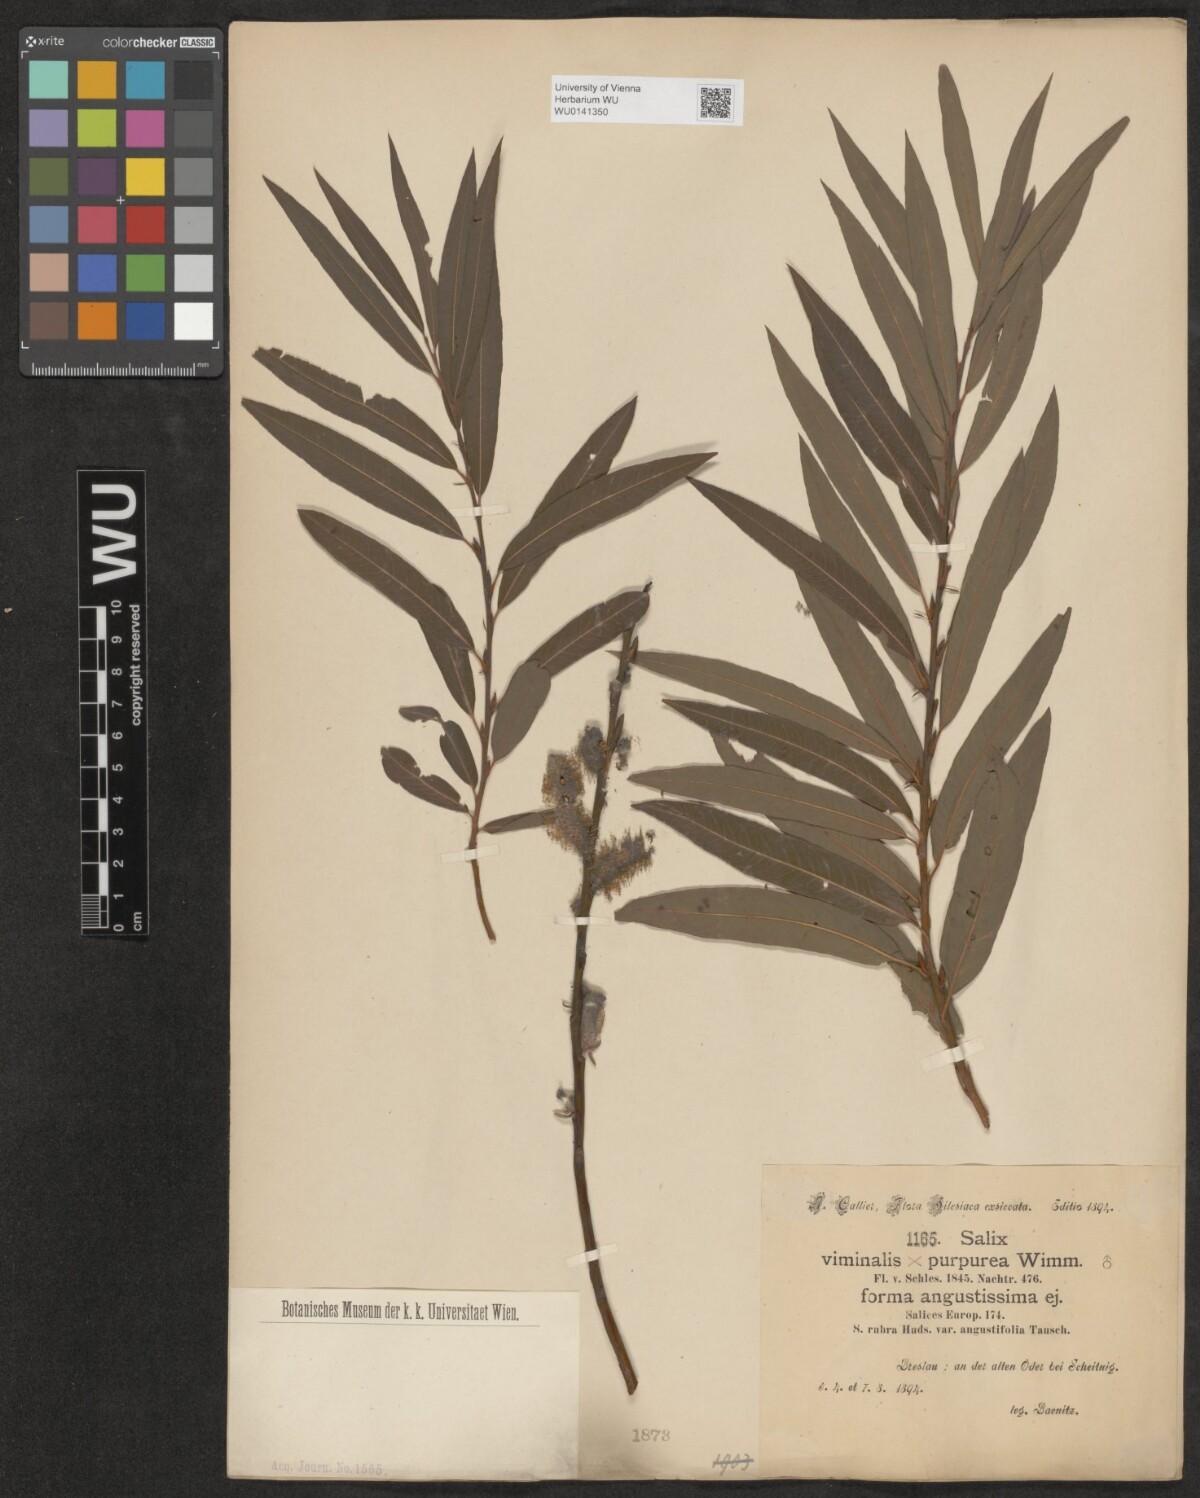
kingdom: Plantae
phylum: Tracheophyta
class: Magnoliopsida
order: Malpighiales
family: Salicaceae
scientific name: Salicaceae
